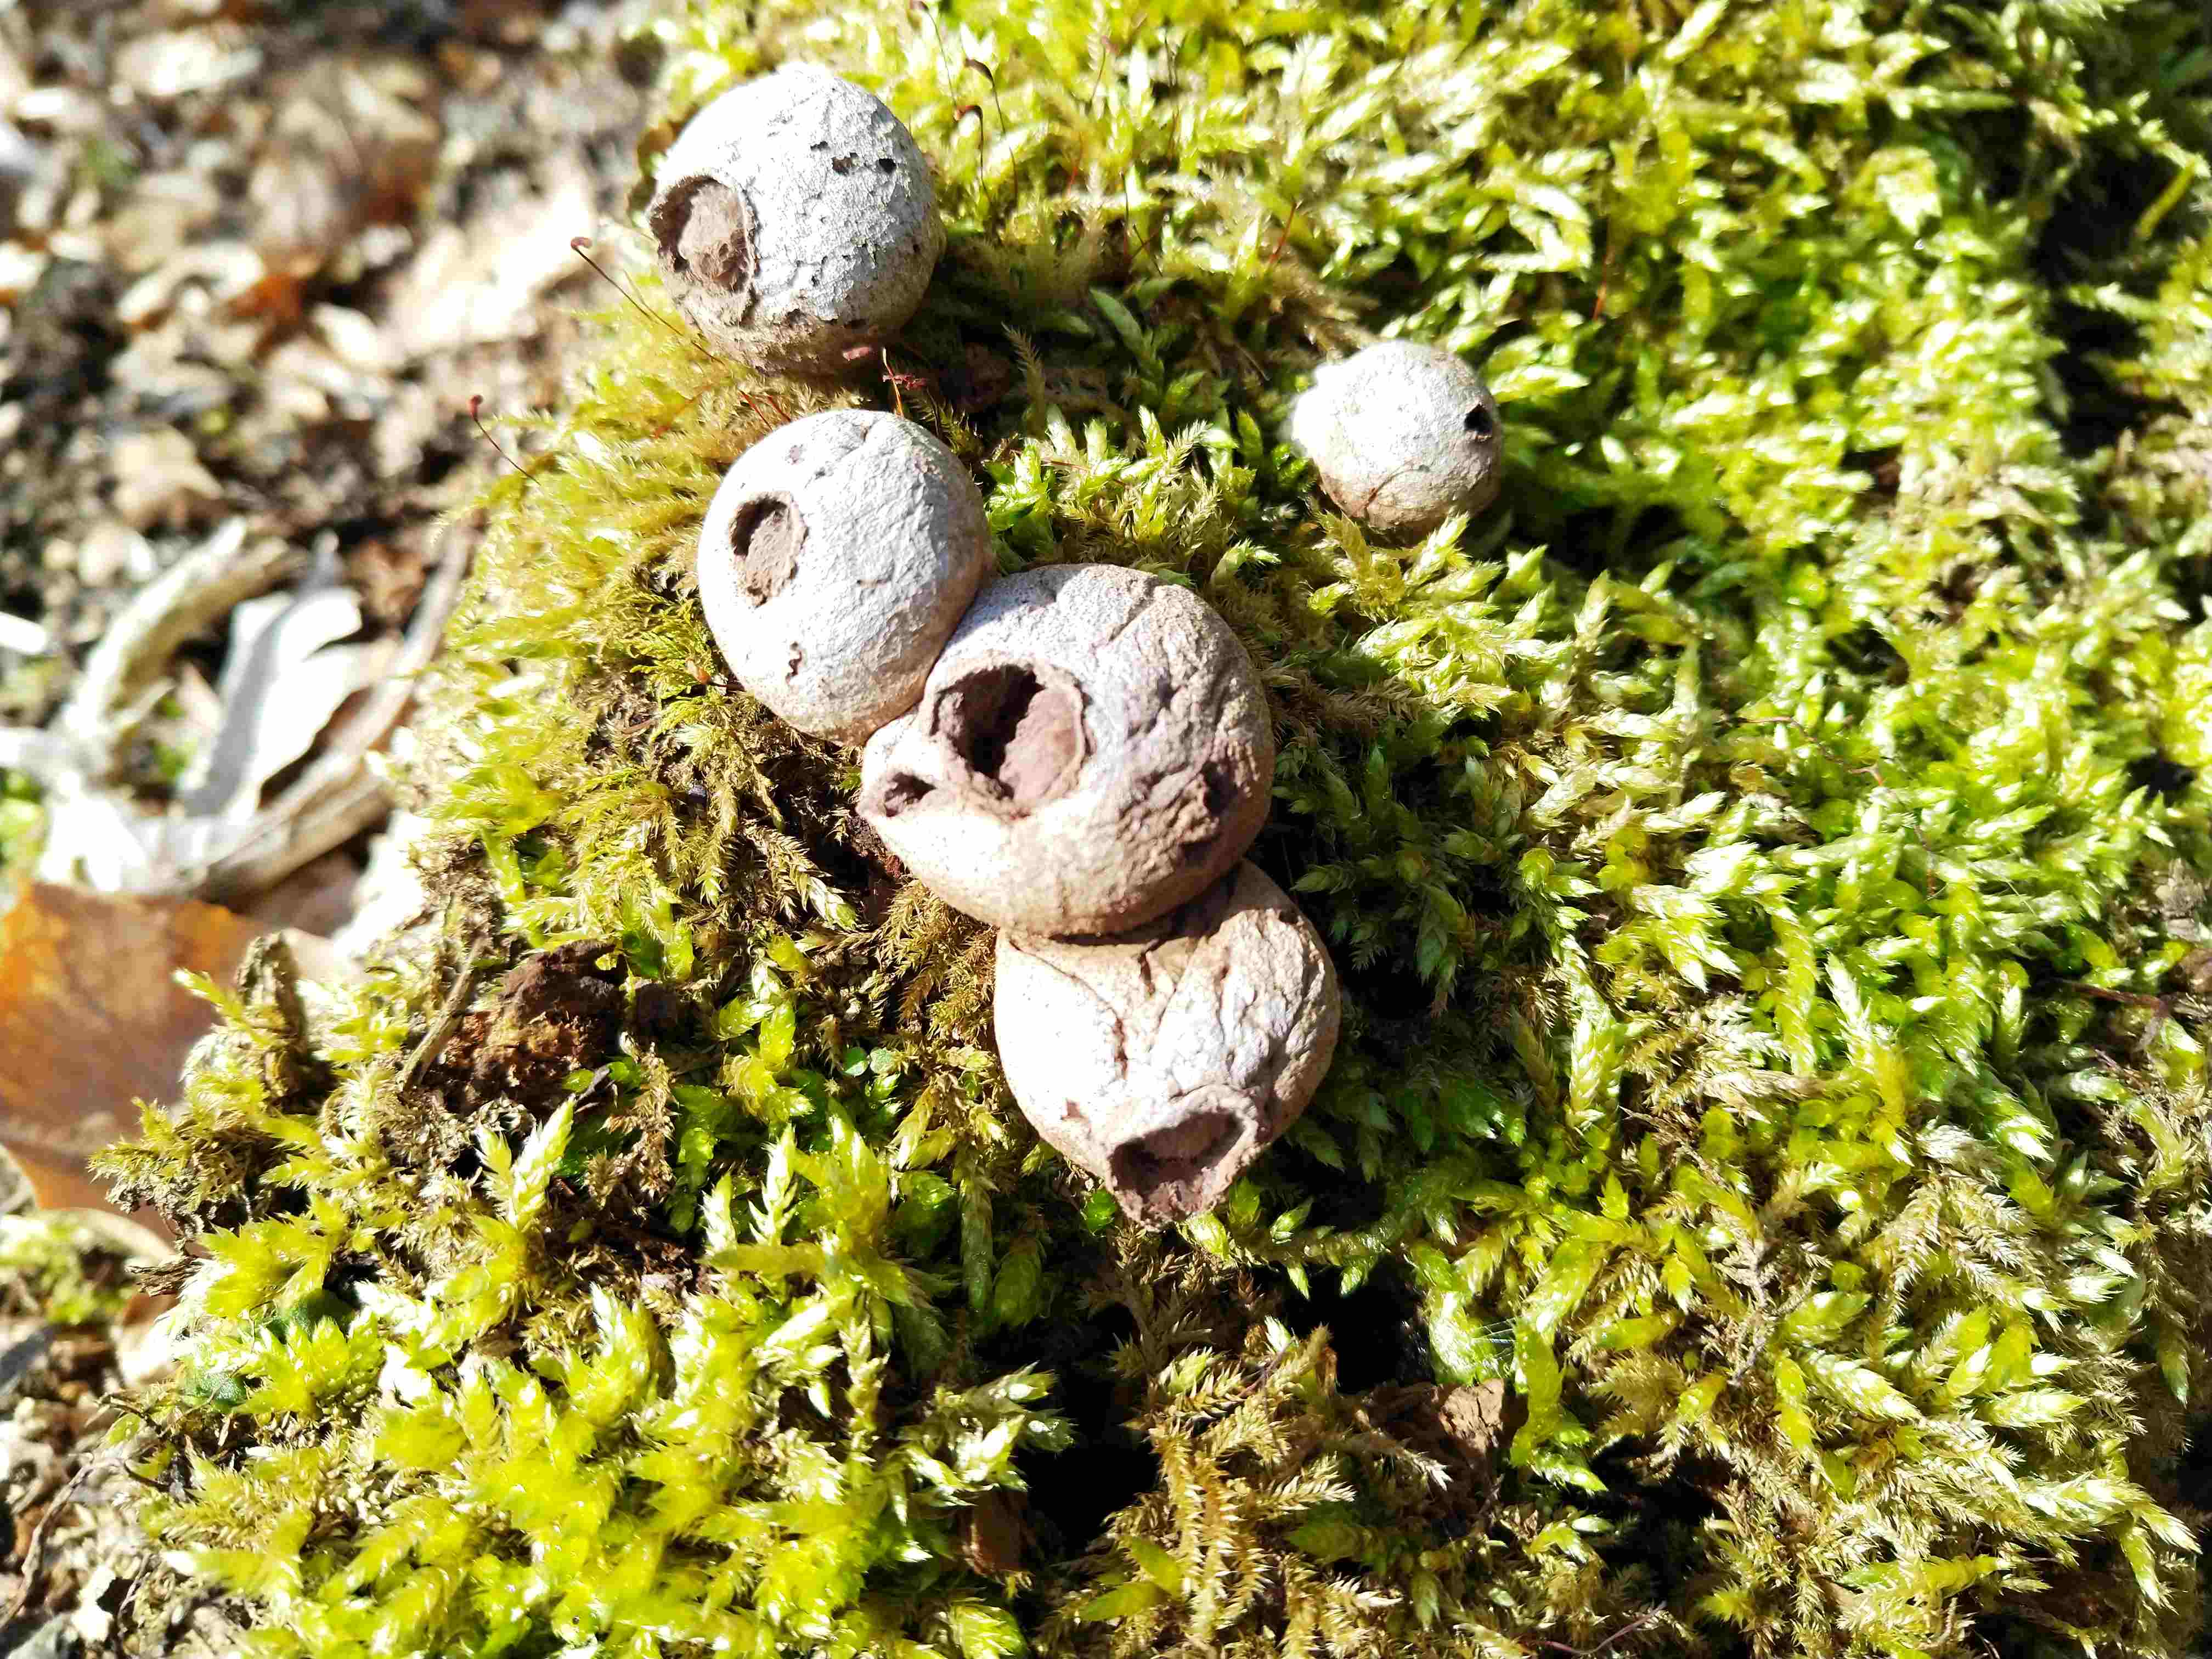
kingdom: Fungi
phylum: Basidiomycota
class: Agaricomycetes
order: Agaricales
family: Lycoperdaceae
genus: Apioperdon
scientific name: Apioperdon pyriforme
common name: pære-støvbold
